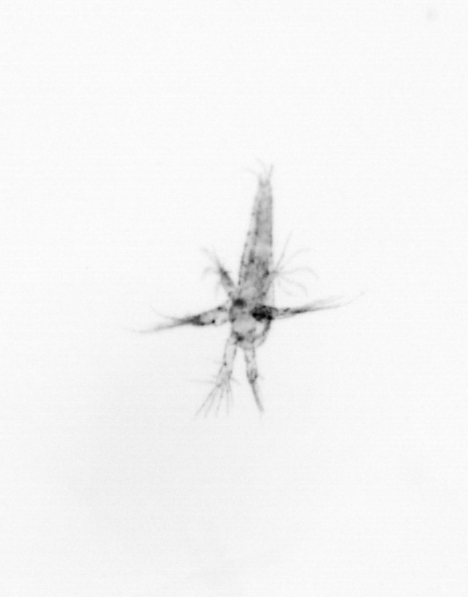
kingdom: Chromista
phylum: Ochrophyta
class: Bacillariophyceae
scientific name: Bacillariophyceae
